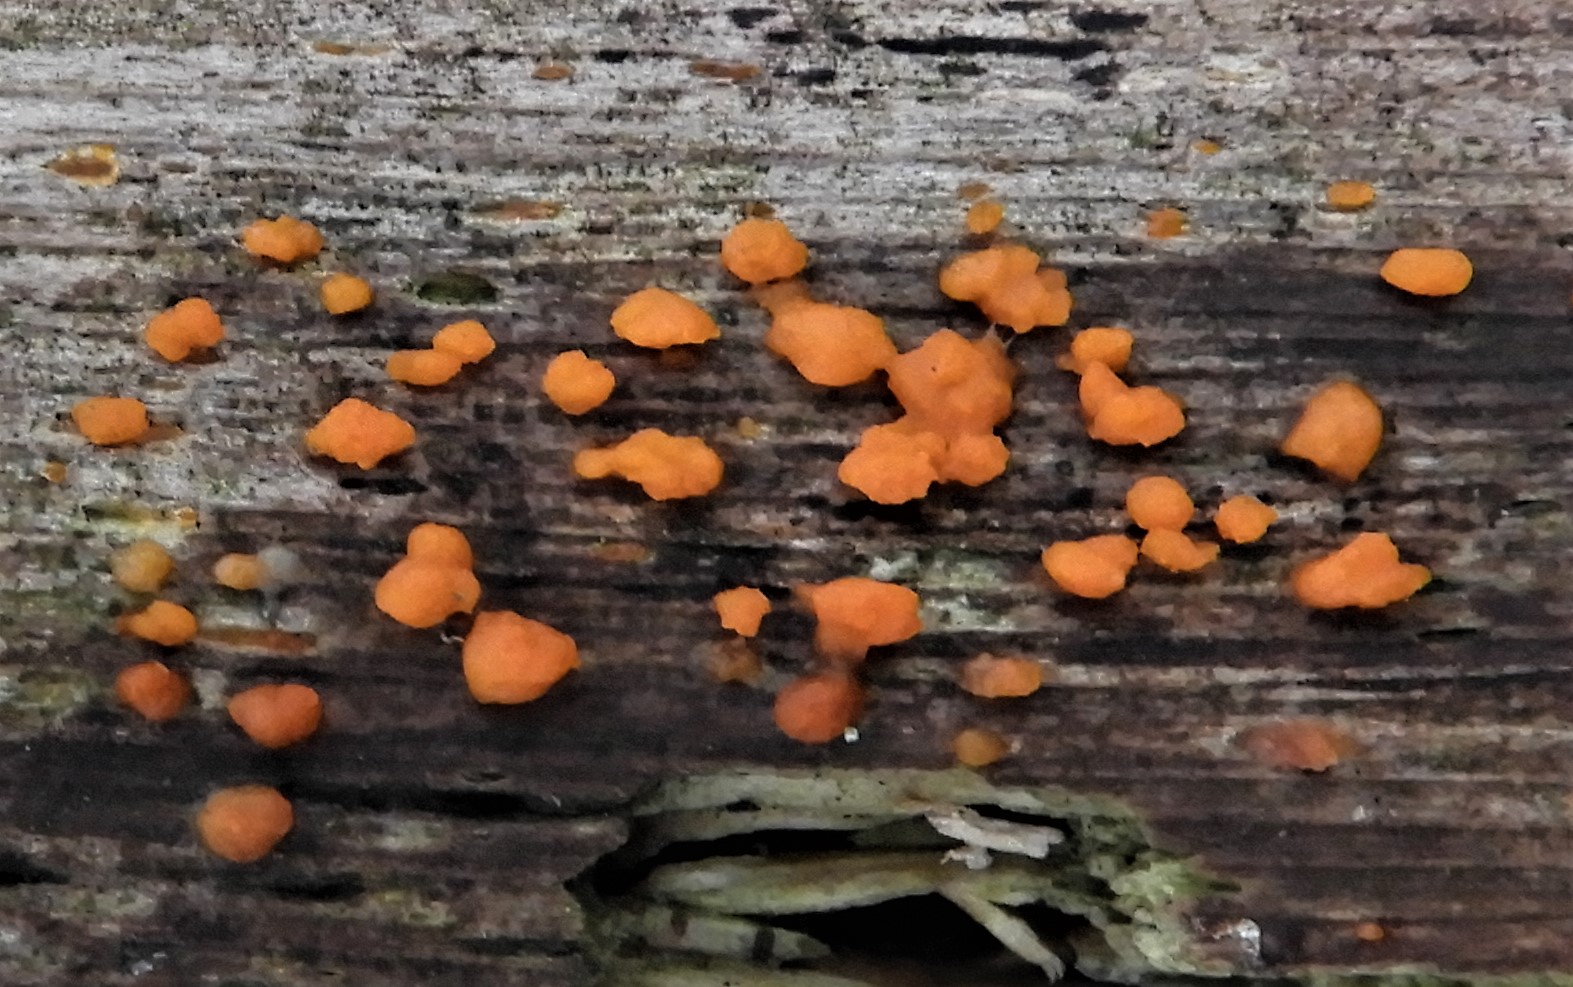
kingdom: Fungi
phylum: Basidiomycota
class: Dacrymycetes
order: Dacrymycetales
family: Dacrymycetaceae
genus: Dacrymyces
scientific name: Dacrymyces stillatus
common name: almindelig tåresvamp
